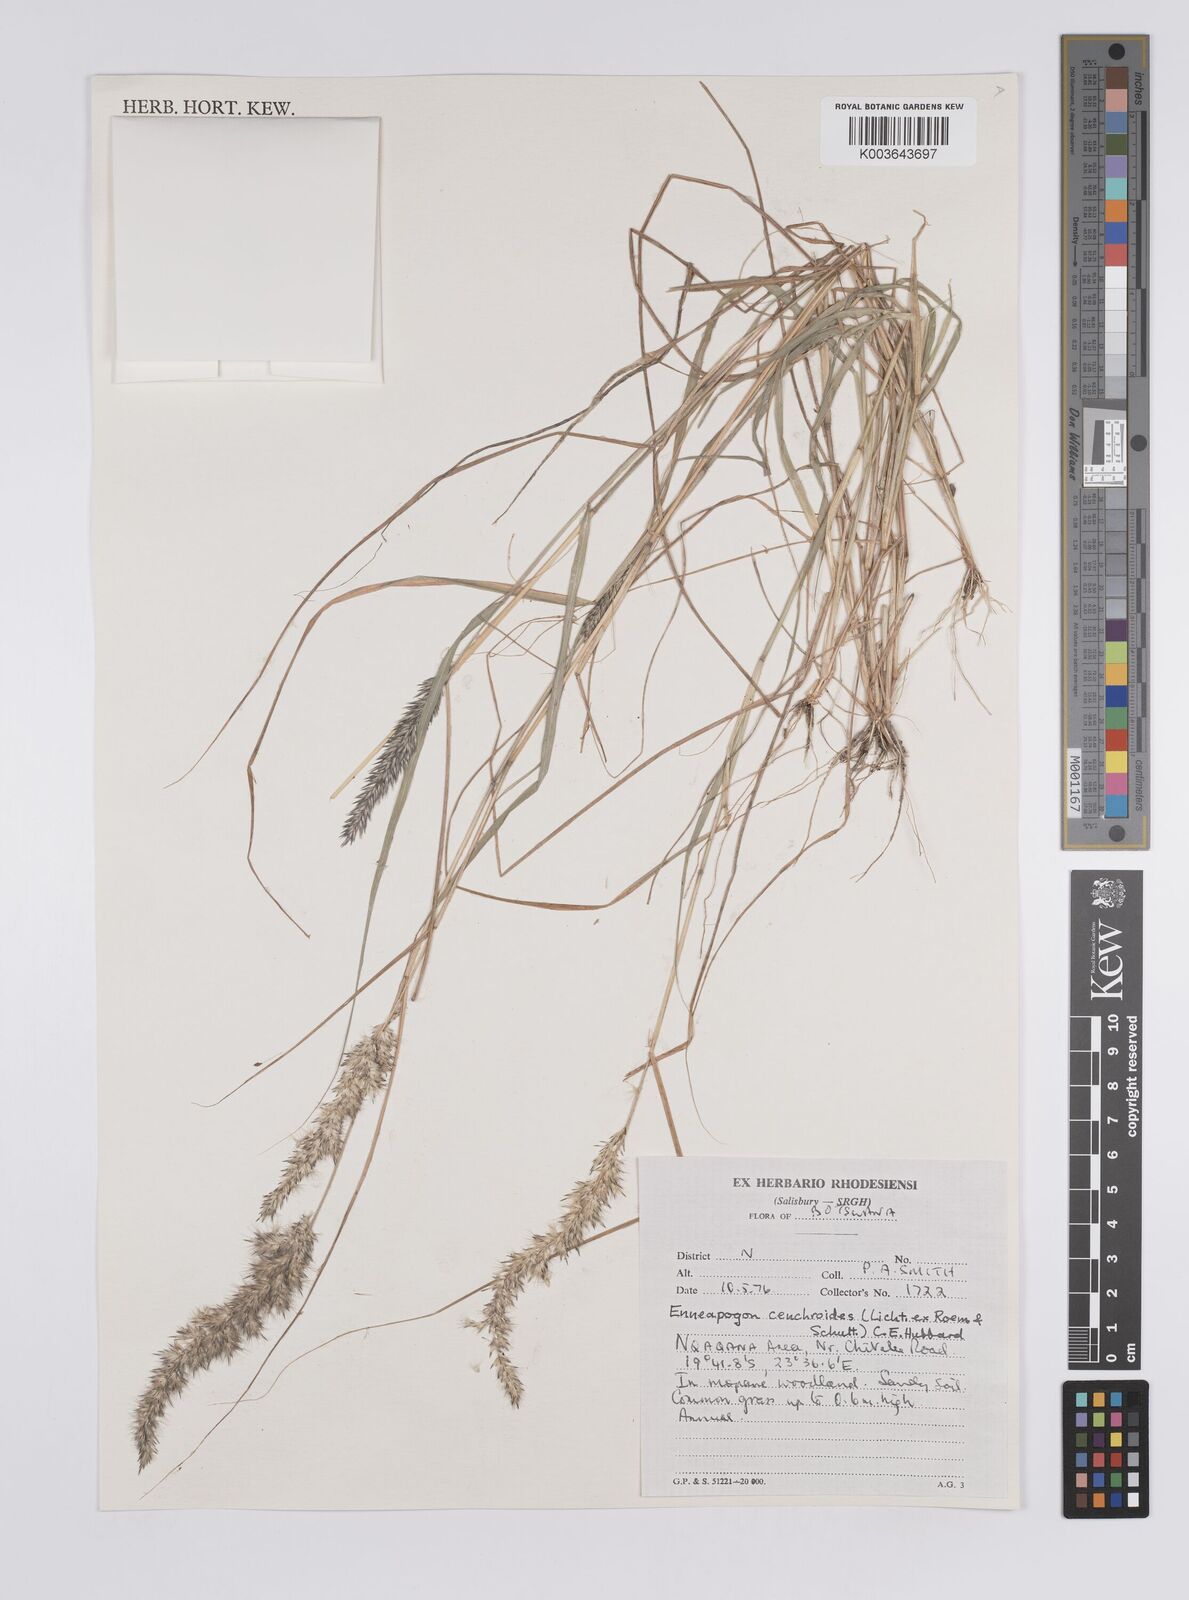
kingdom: Plantae
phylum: Tracheophyta
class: Liliopsida
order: Poales
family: Poaceae
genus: Enneapogon
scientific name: Enneapogon cenchroides
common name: Soft feather pappusgrass
